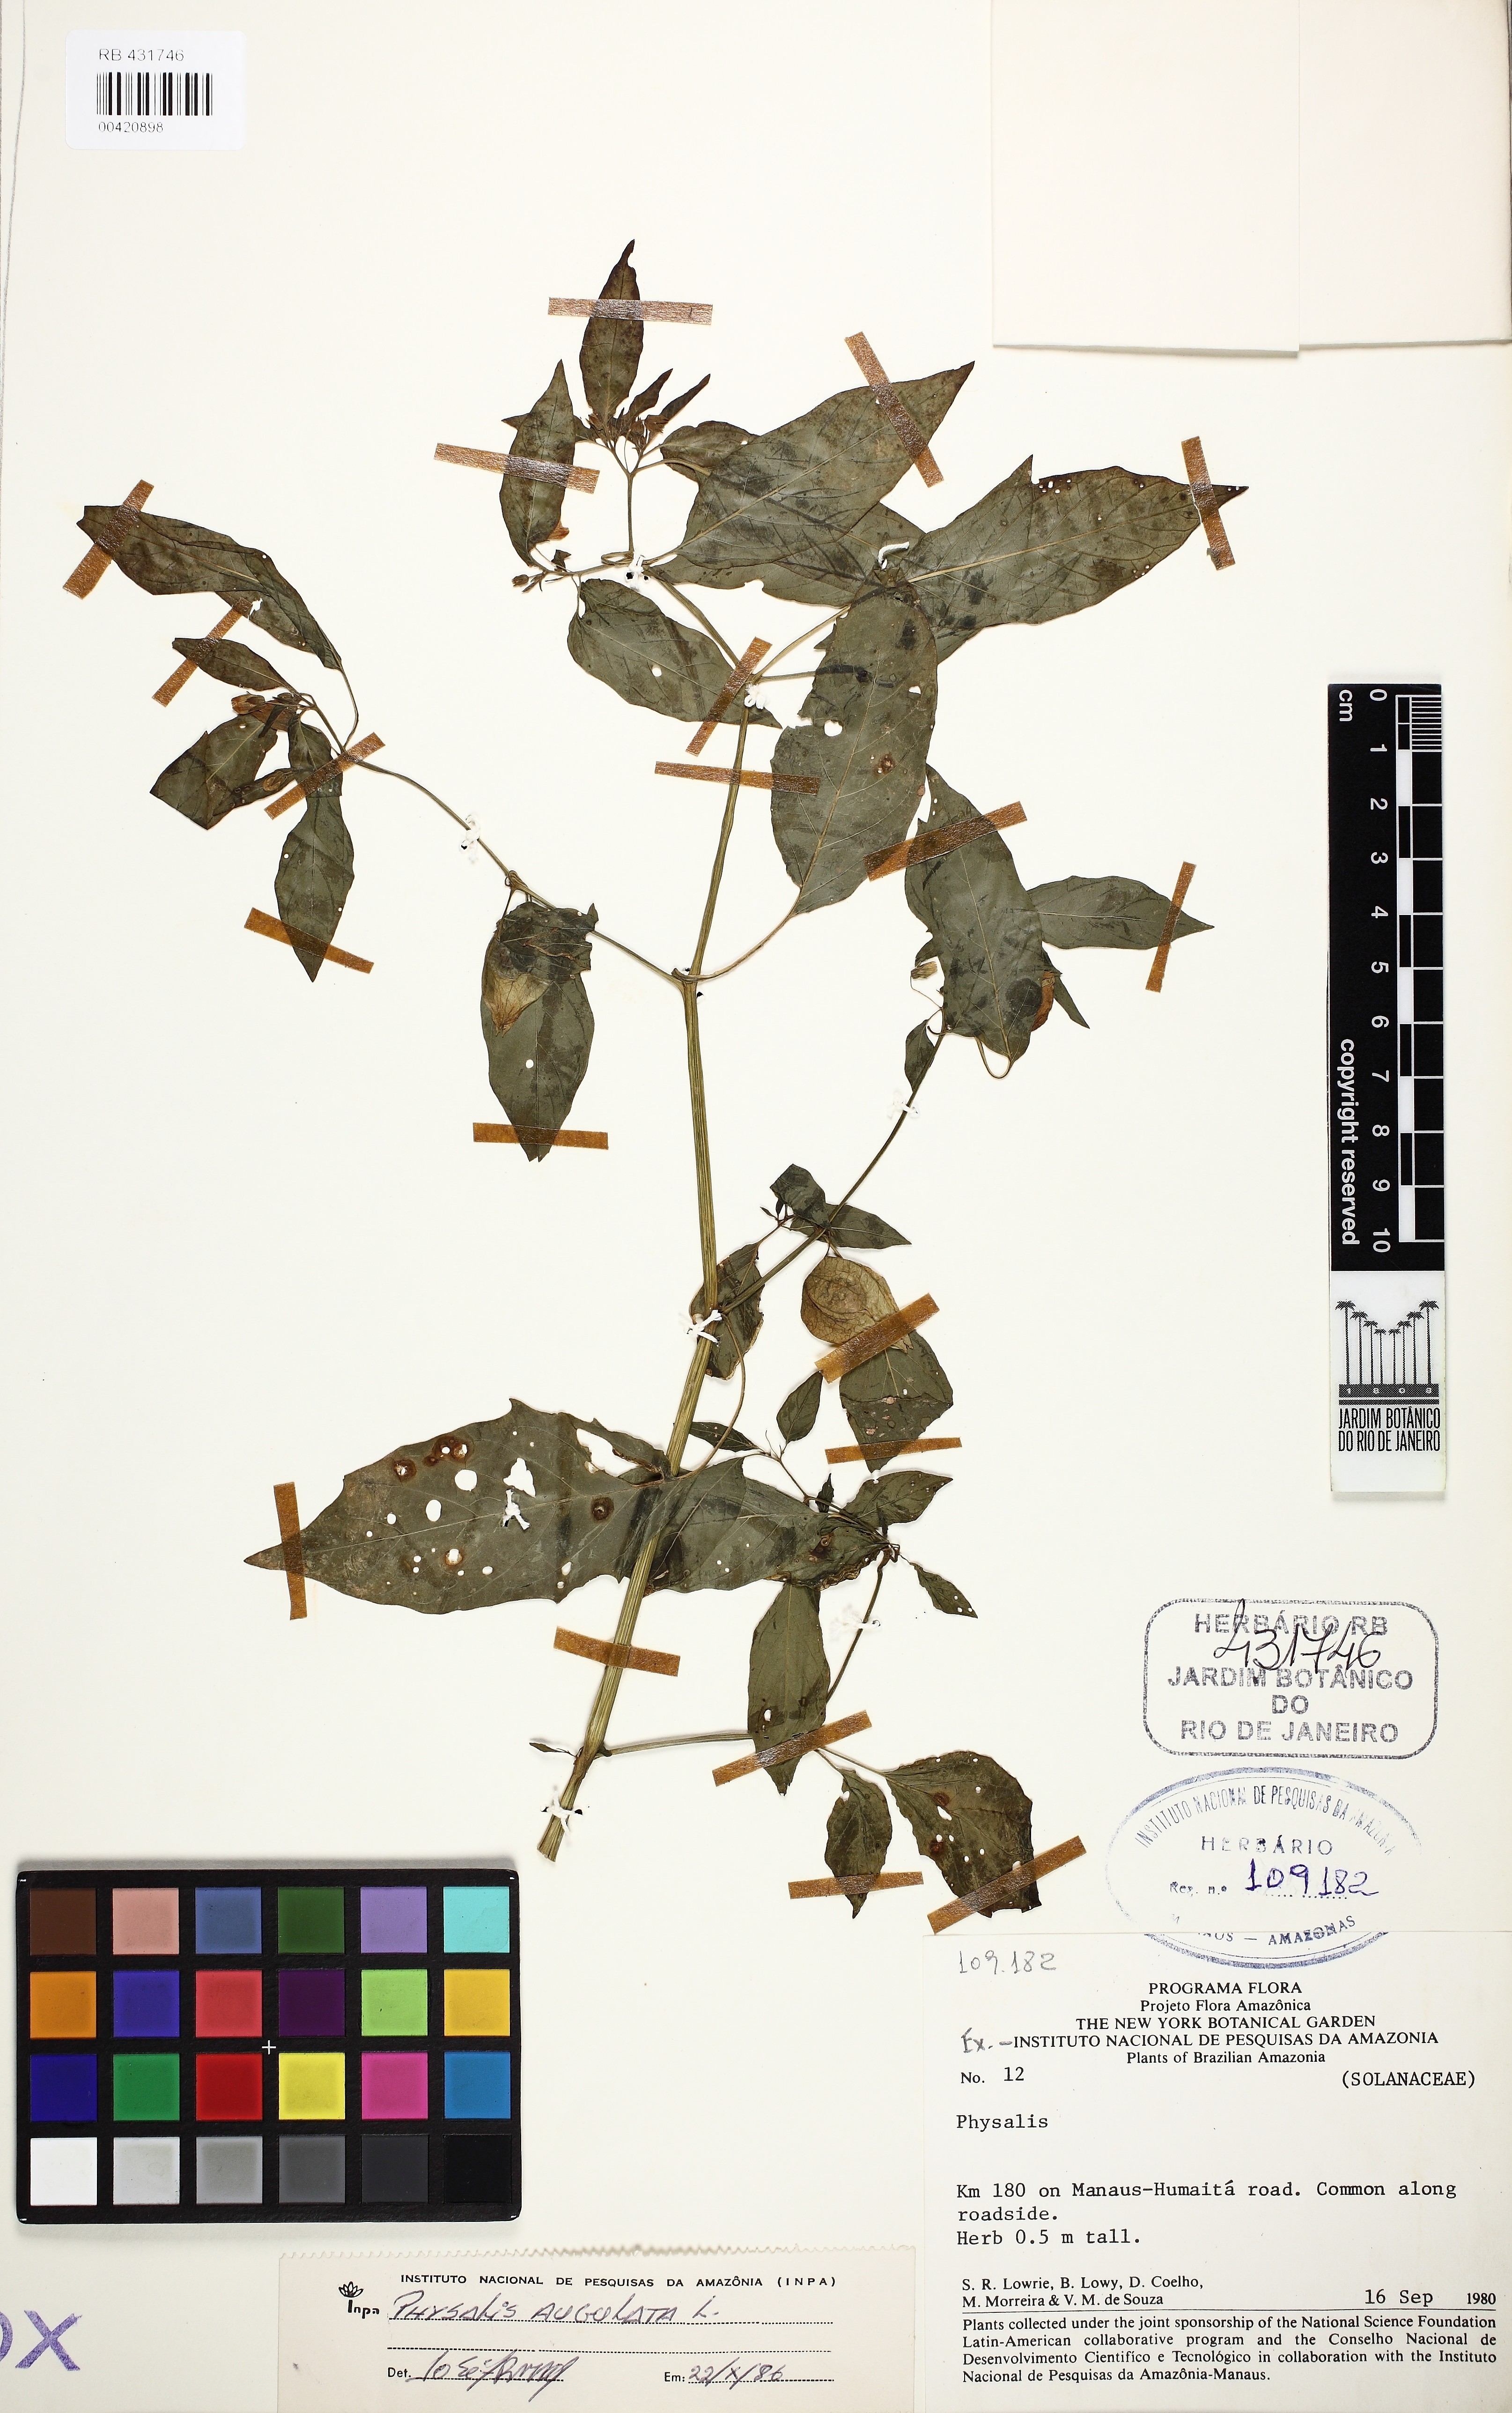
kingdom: Plantae
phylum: Tracheophyta
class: Magnoliopsida
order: Solanales
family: Solanaceae
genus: Physalis
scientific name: Physalis angulata
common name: Angular winter-cherry
